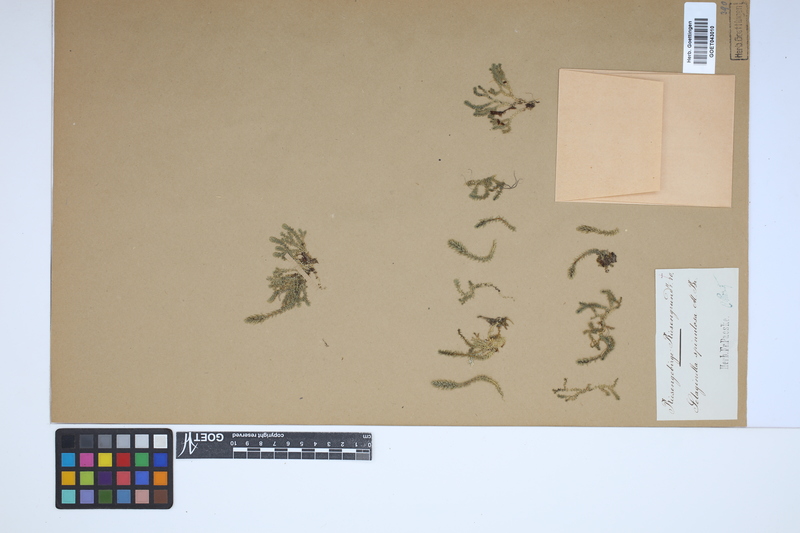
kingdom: Plantae
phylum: Tracheophyta
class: Lycopodiopsida
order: Selaginellales
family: Selaginellaceae
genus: Selaginella
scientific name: Selaginella selaginoides
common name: Prickly mountain-moss
